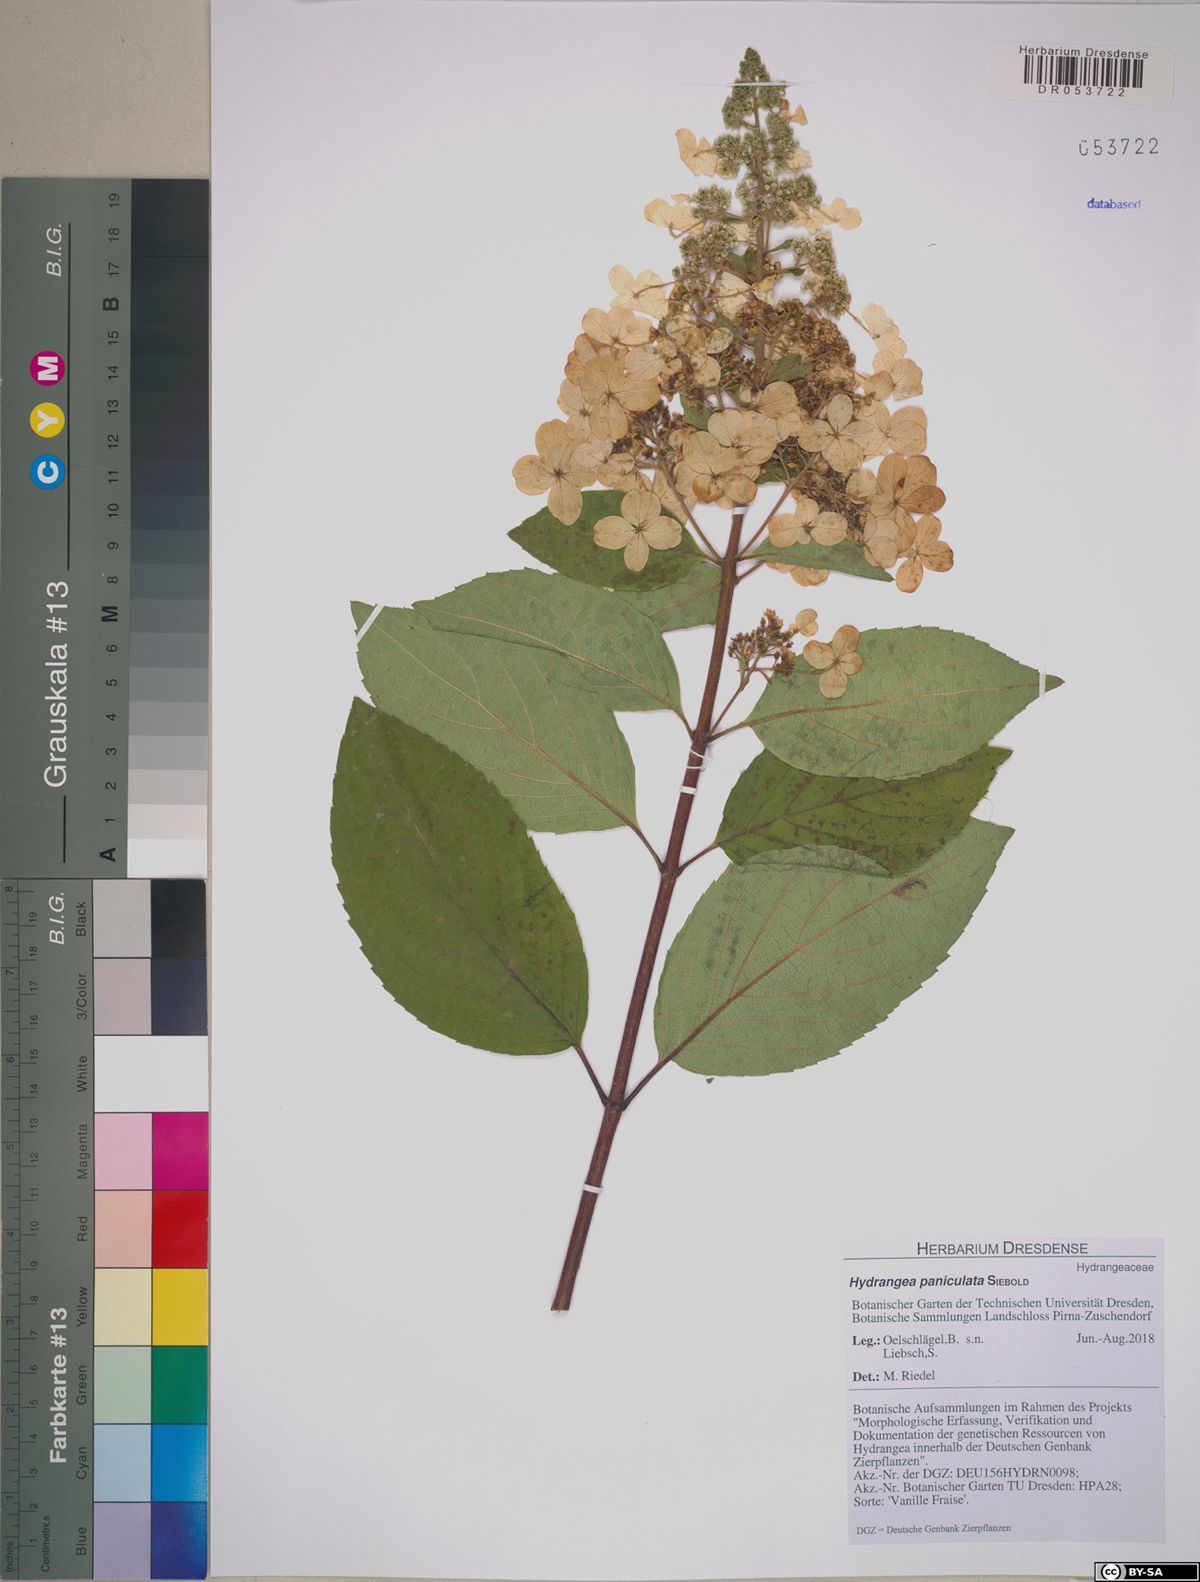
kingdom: Plantae
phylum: Tracheophyta
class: Magnoliopsida
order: Cornales
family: Hydrangeaceae
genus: Hydrangea
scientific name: Hydrangea paniculata
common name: Panicled hydrangea
